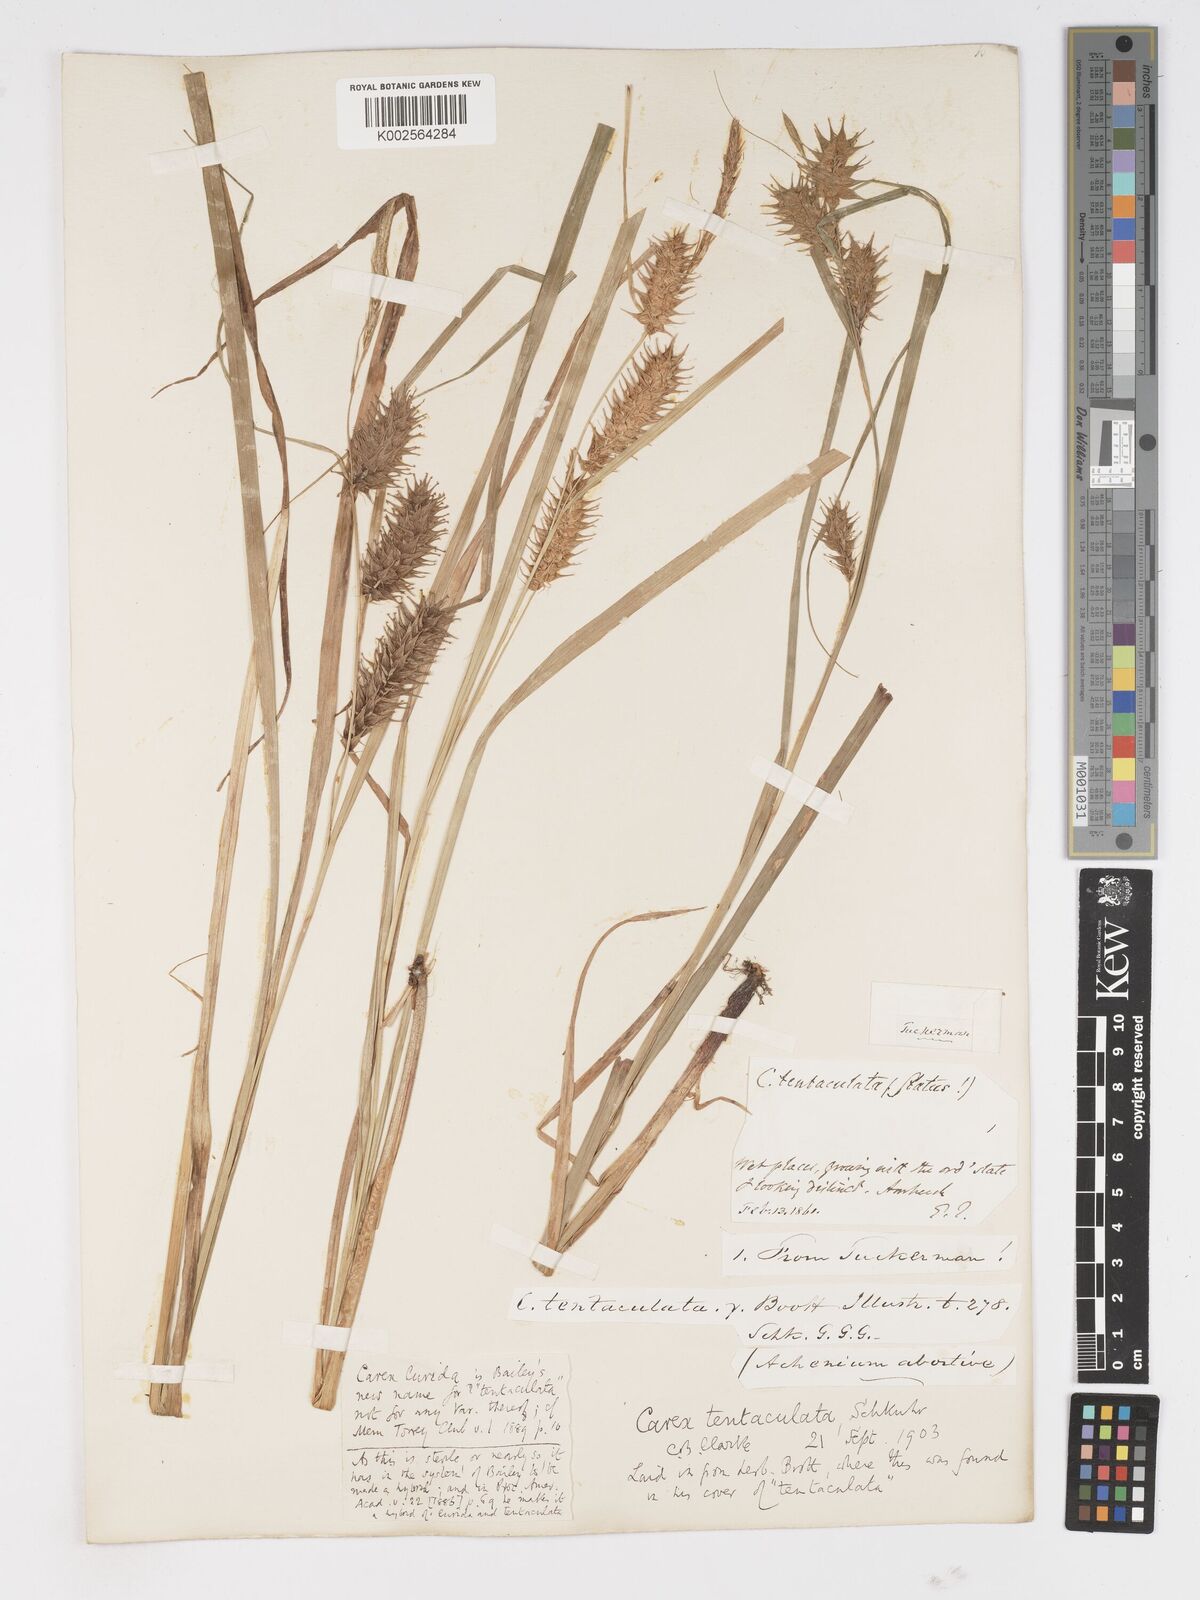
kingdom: Plantae
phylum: Tracheophyta
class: Liliopsida
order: Poales
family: Cyperaceae
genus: Carex
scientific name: Carex lurida
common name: Sallow sedge
